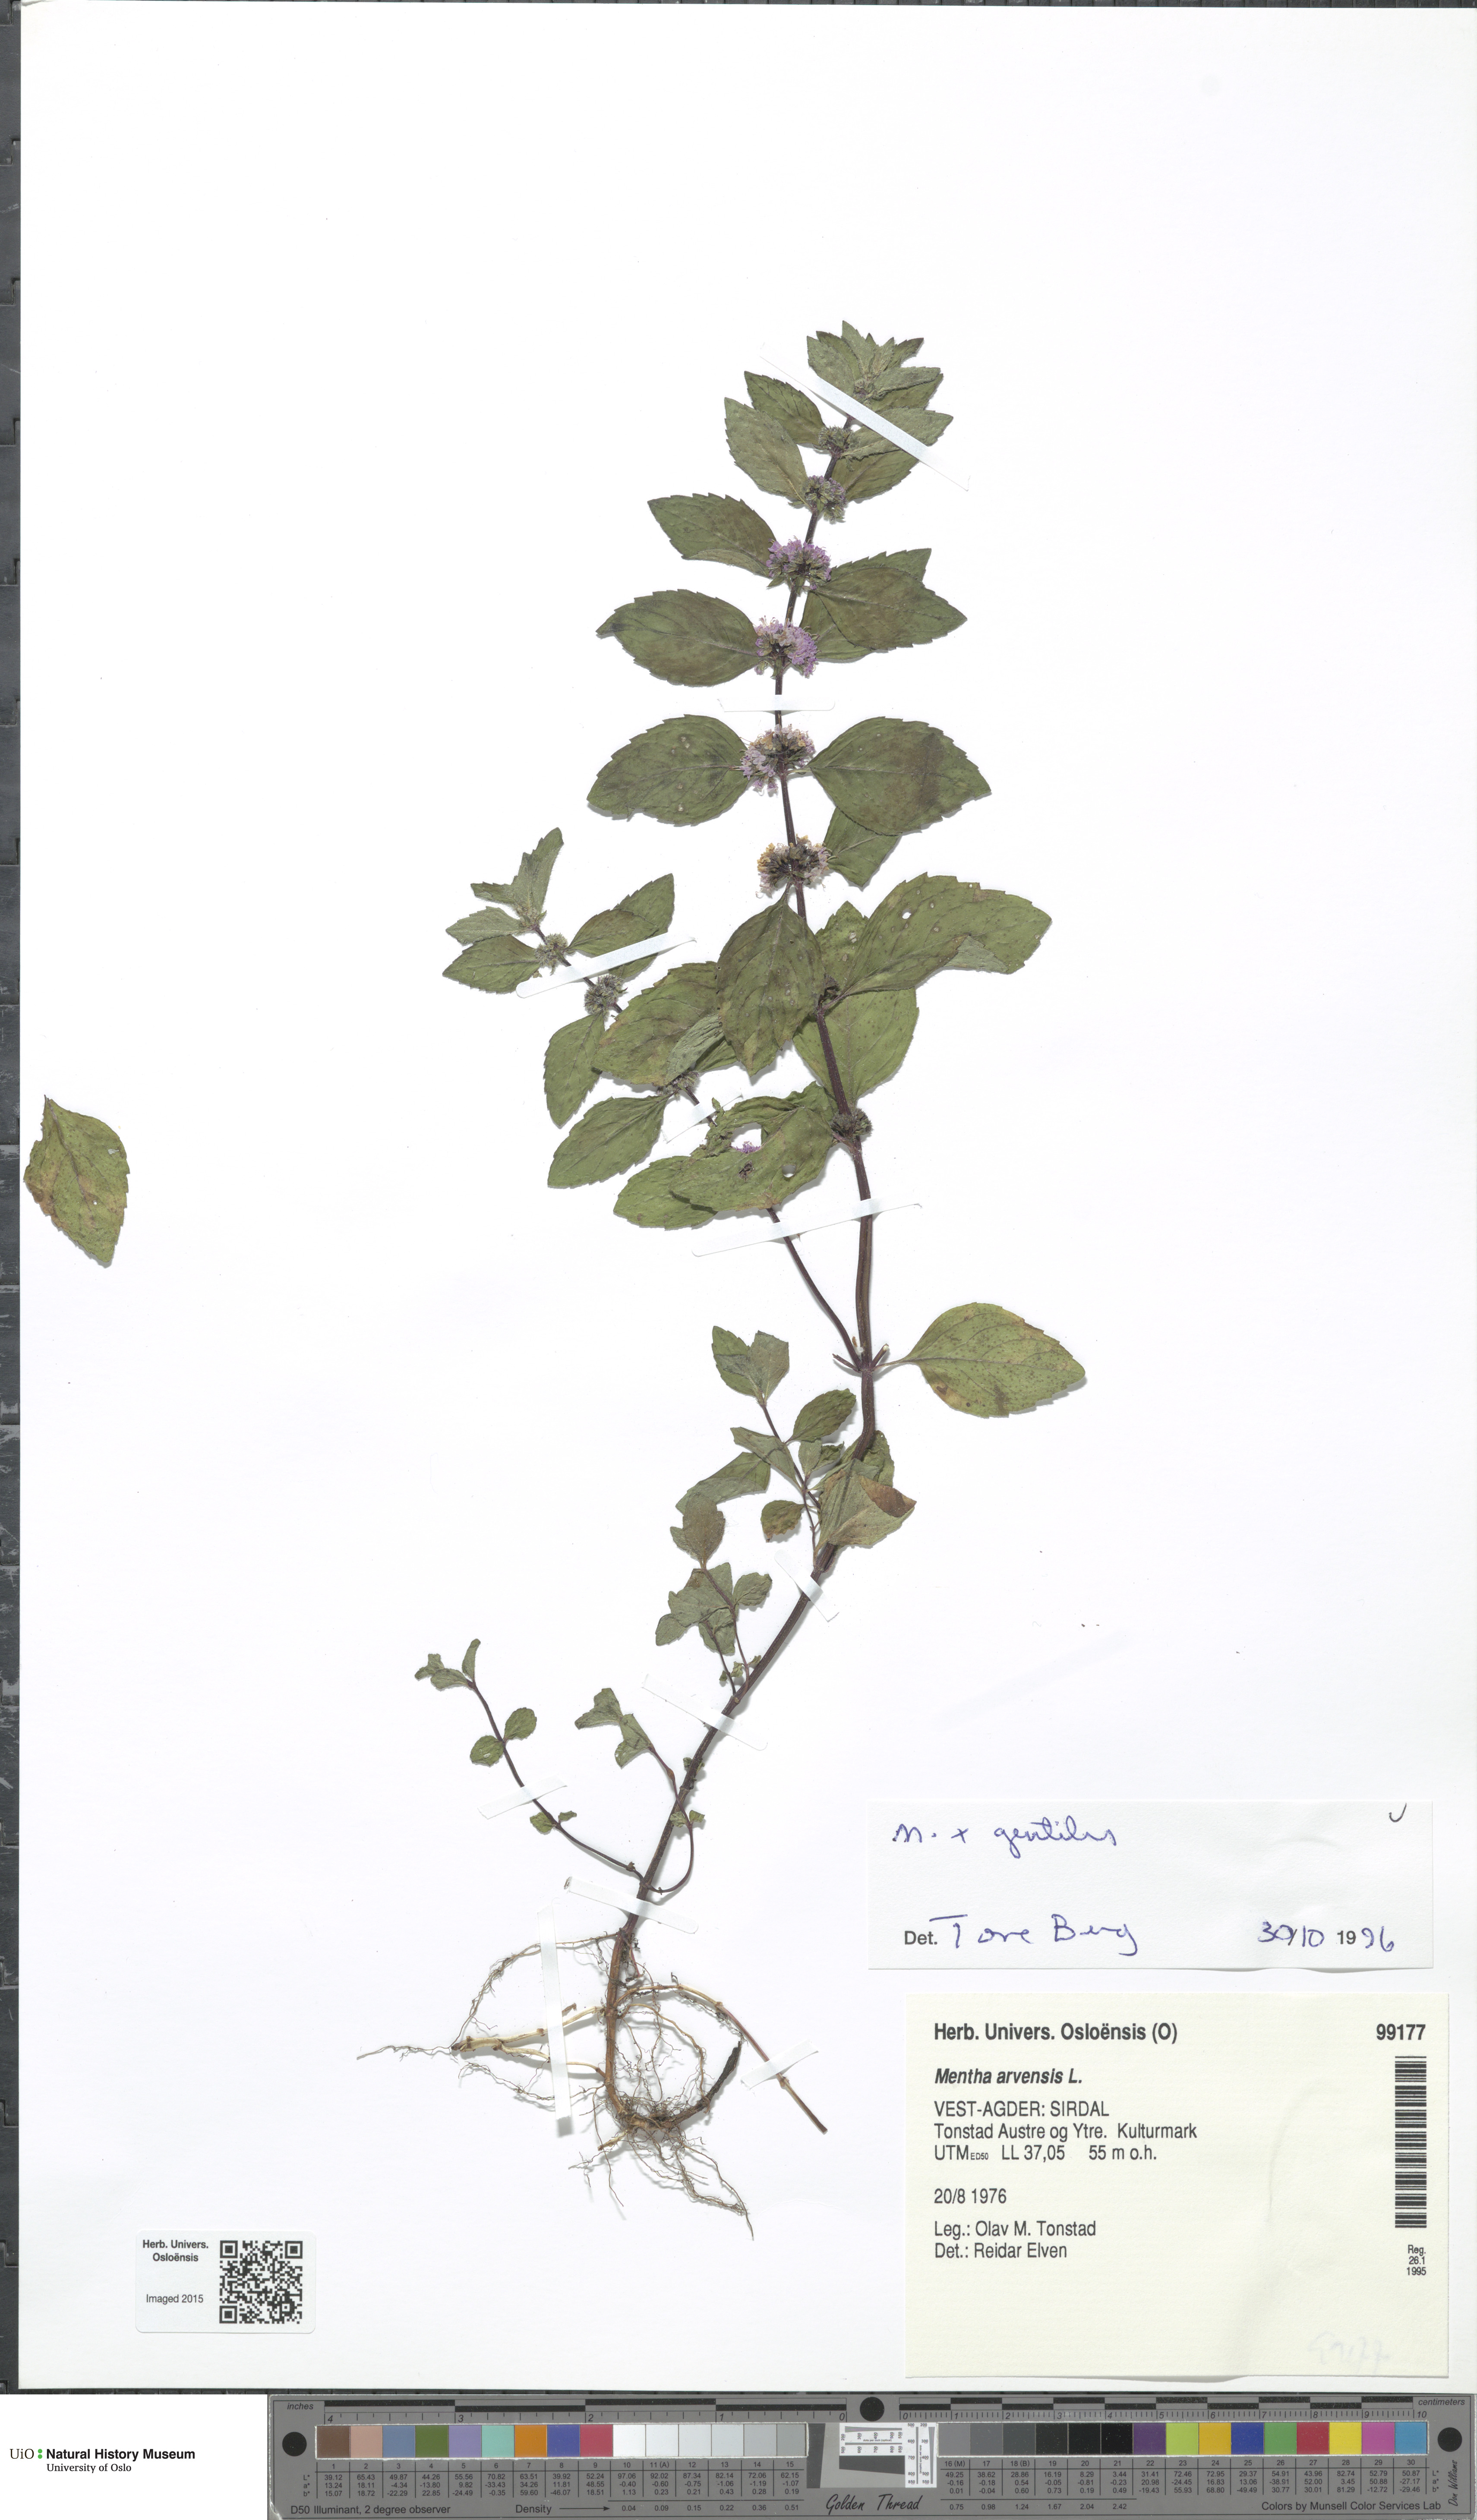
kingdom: Plantae
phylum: Tracheophyta
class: Magnoliopsida
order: Lamiales
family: Lamiaceae
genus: Mentha
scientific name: Mentha arvensis
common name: Corn mint
